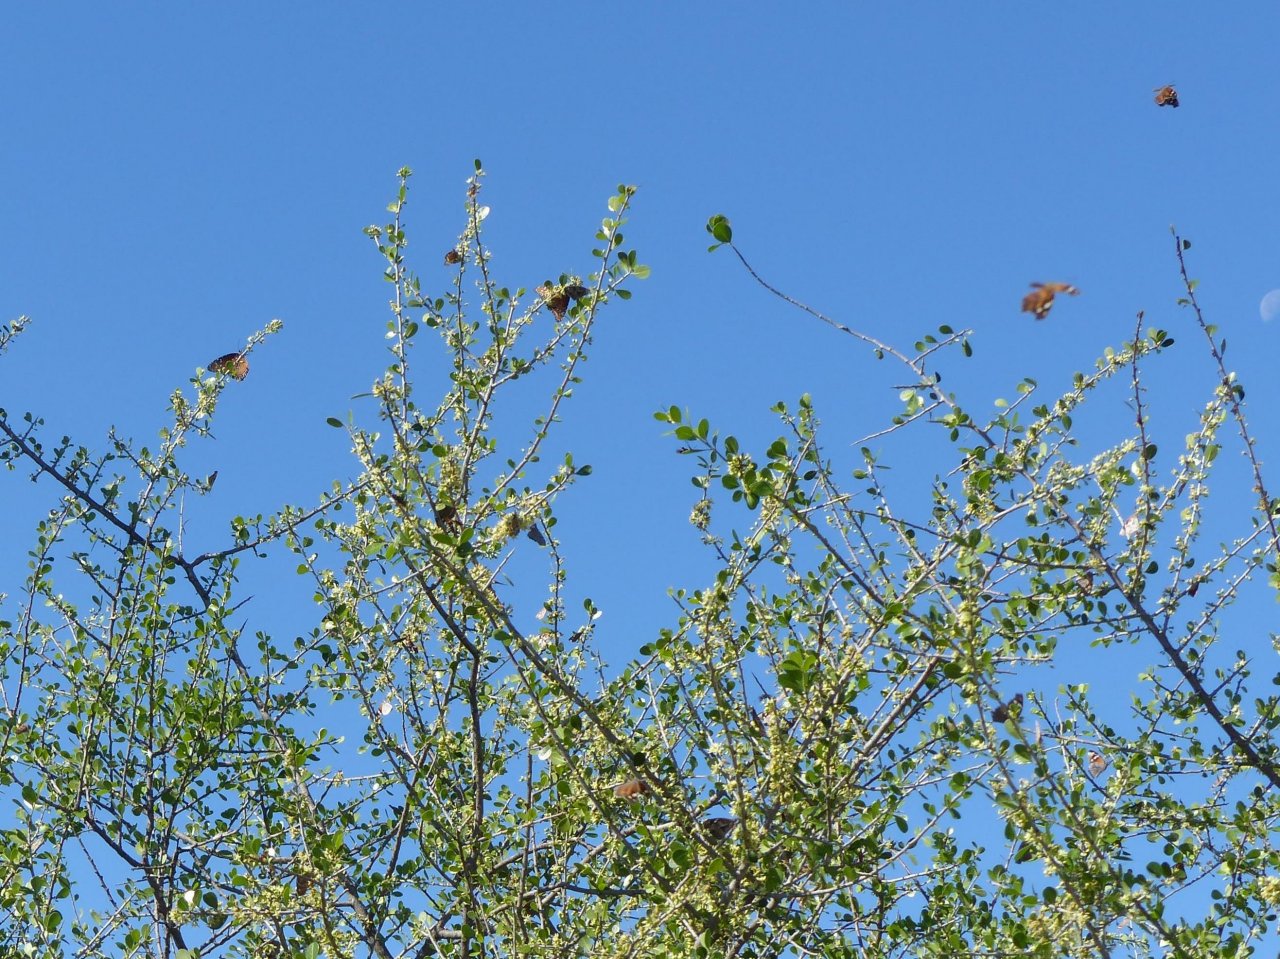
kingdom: Animalia
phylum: Arthropoda
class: Insecta
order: Lepidoptera
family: Nymphalidae
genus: Libytheana
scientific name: Libytheana carinenta
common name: American Snout
